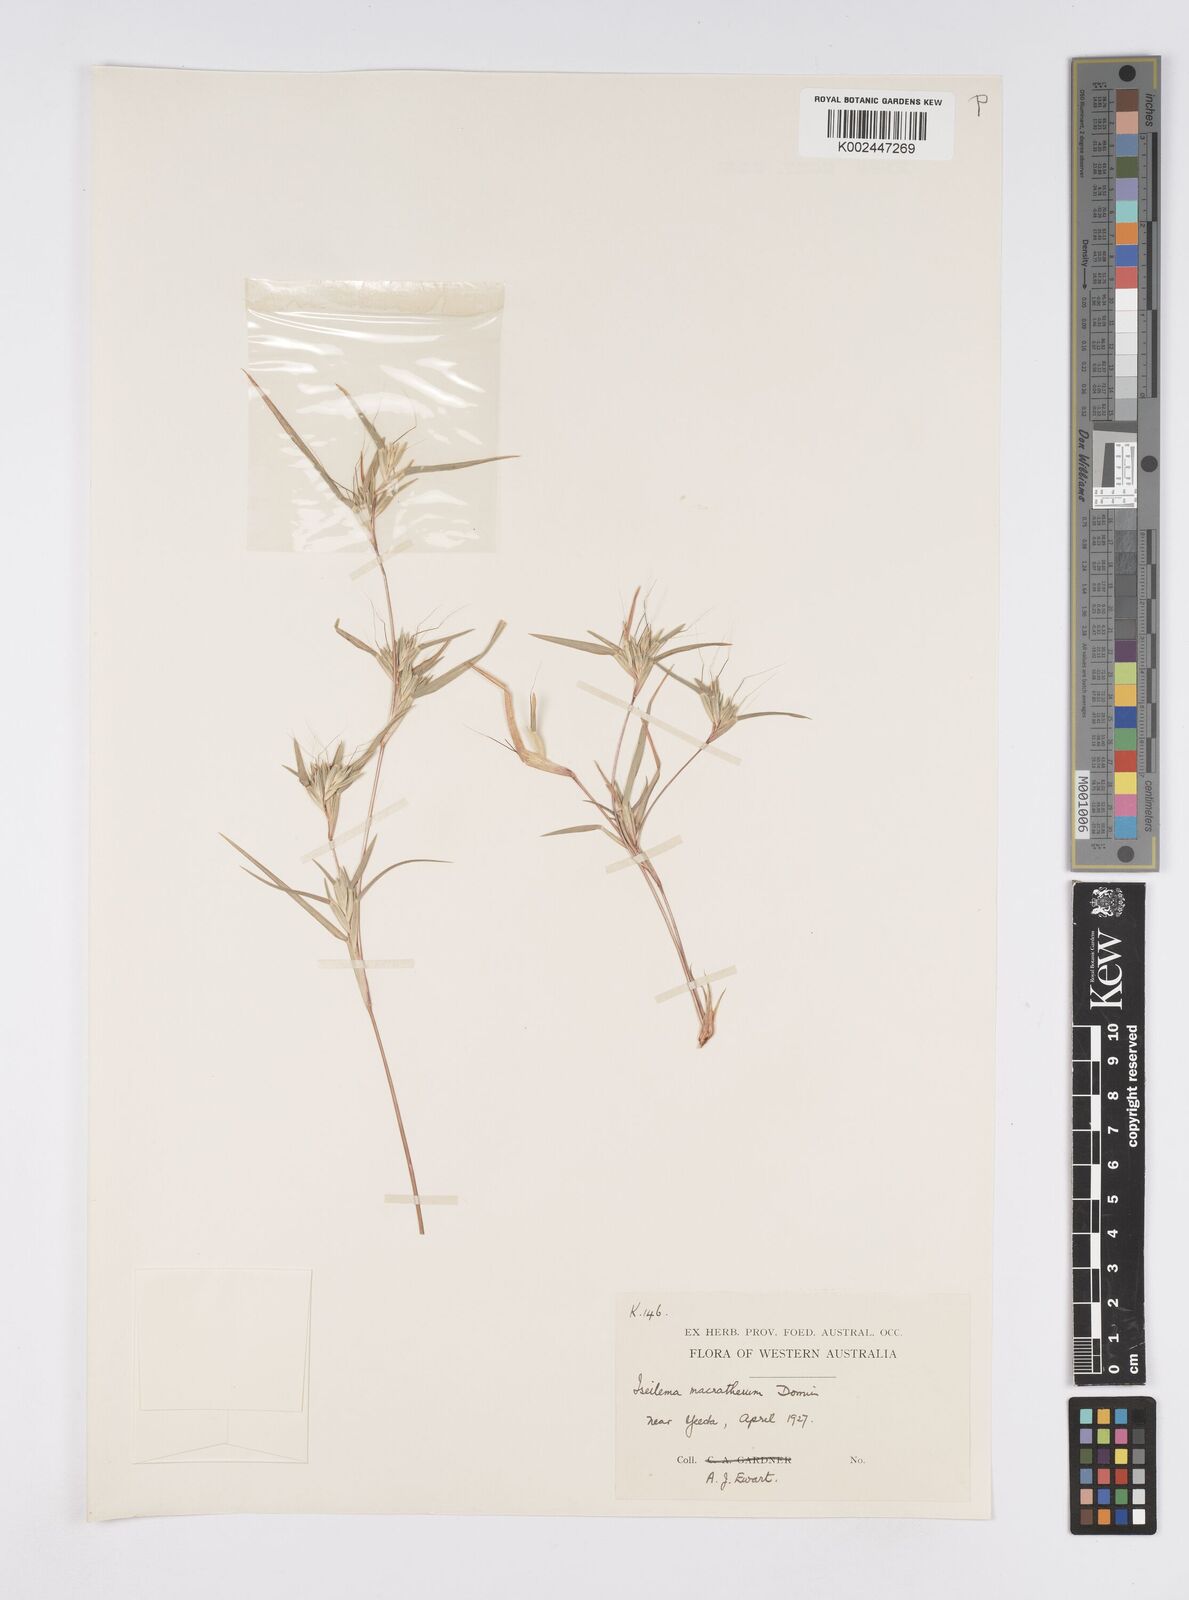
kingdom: Plantae
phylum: Tracheophyta
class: Liliopsida
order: Poales
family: Poaceae
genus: Iseilema
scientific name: Iseilema macratherum
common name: Bull flinders grass
